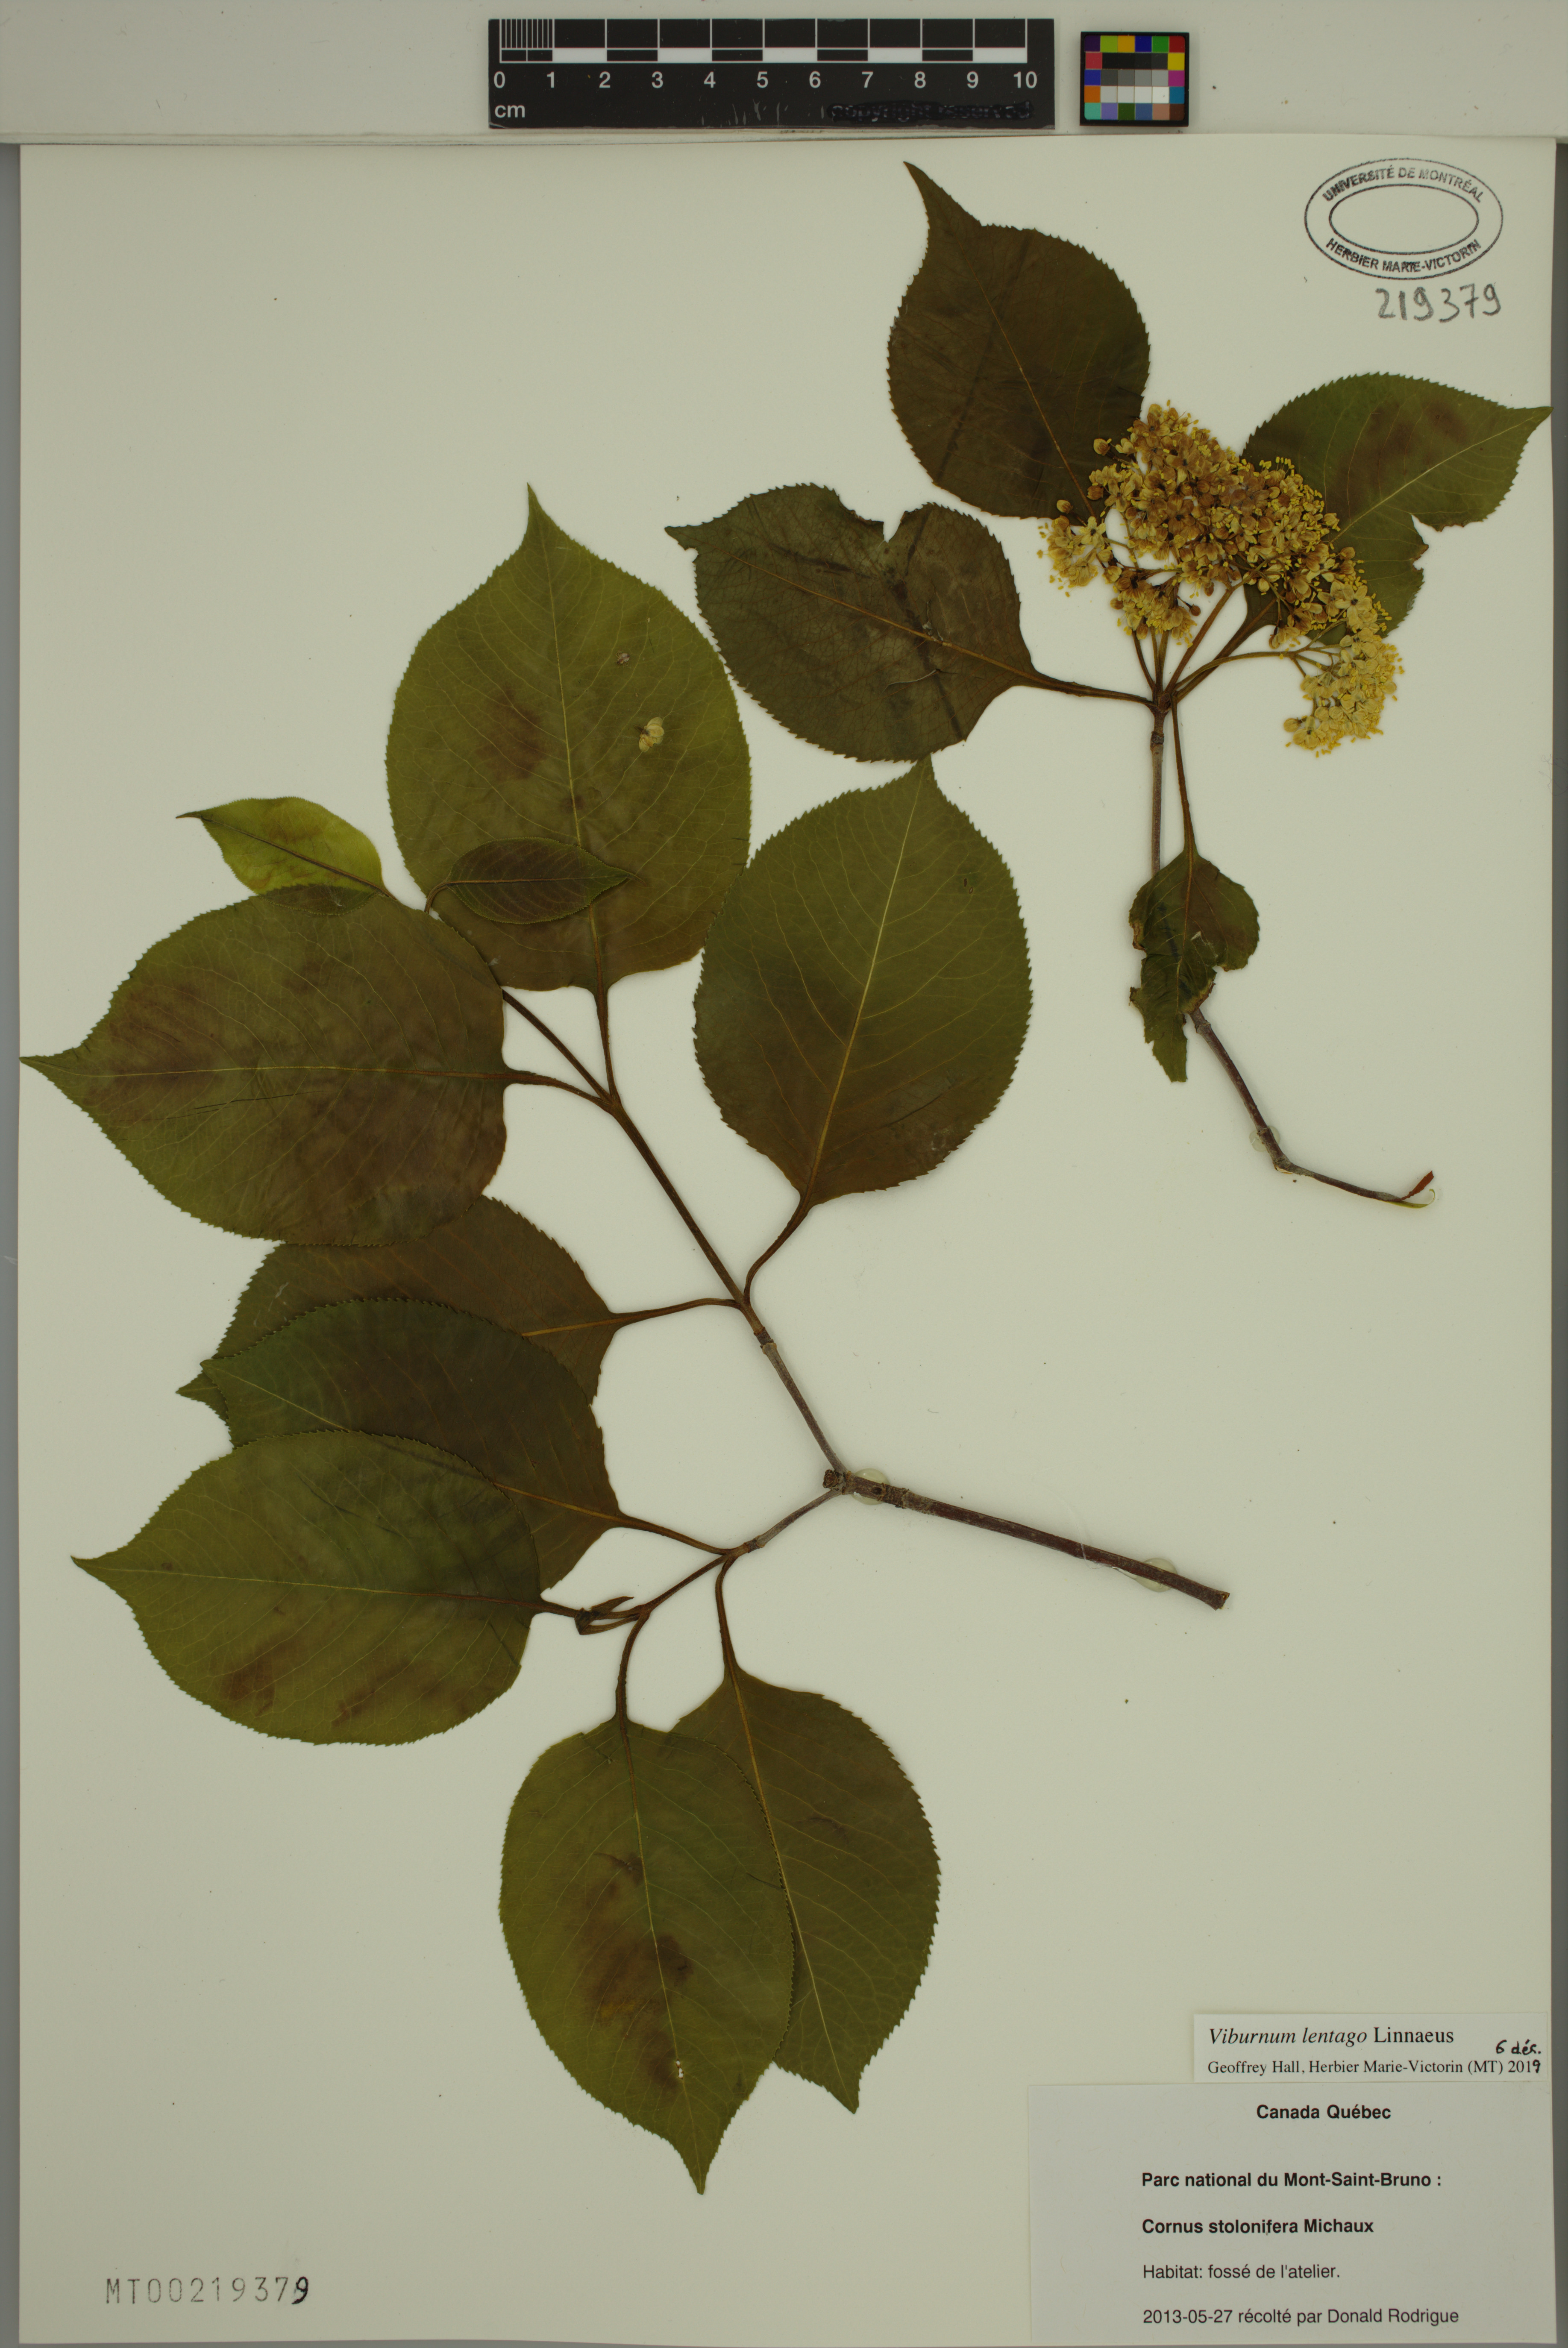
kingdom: Plantae
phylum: Tracheophyta
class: Magnoliopsida
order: Dipsacales
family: Viburnaceae
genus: Viburnum
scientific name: Viburnum lentago
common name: Black haw
